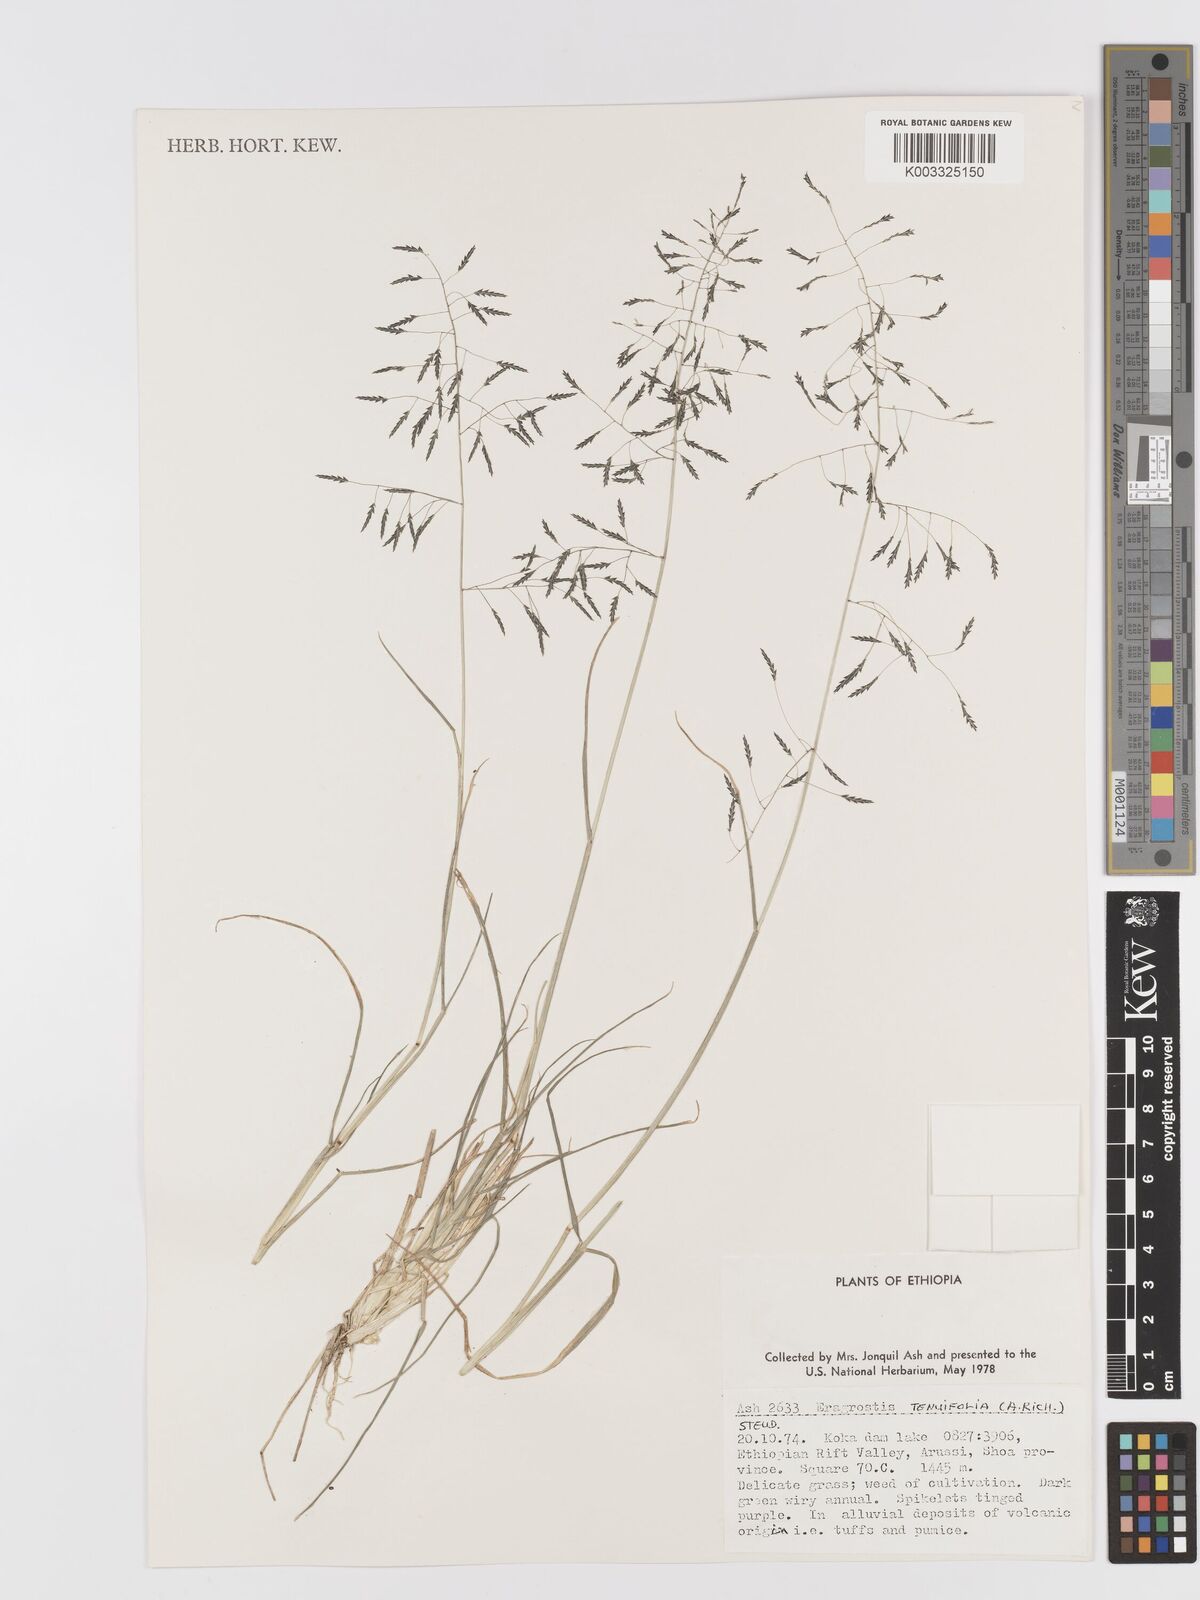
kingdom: Plantae
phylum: Tracheophyta
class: Liliopsida
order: Poales
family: Poaceae
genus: Eragrostis
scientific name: Eragrostis tenuifolia
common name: Elastic grass
